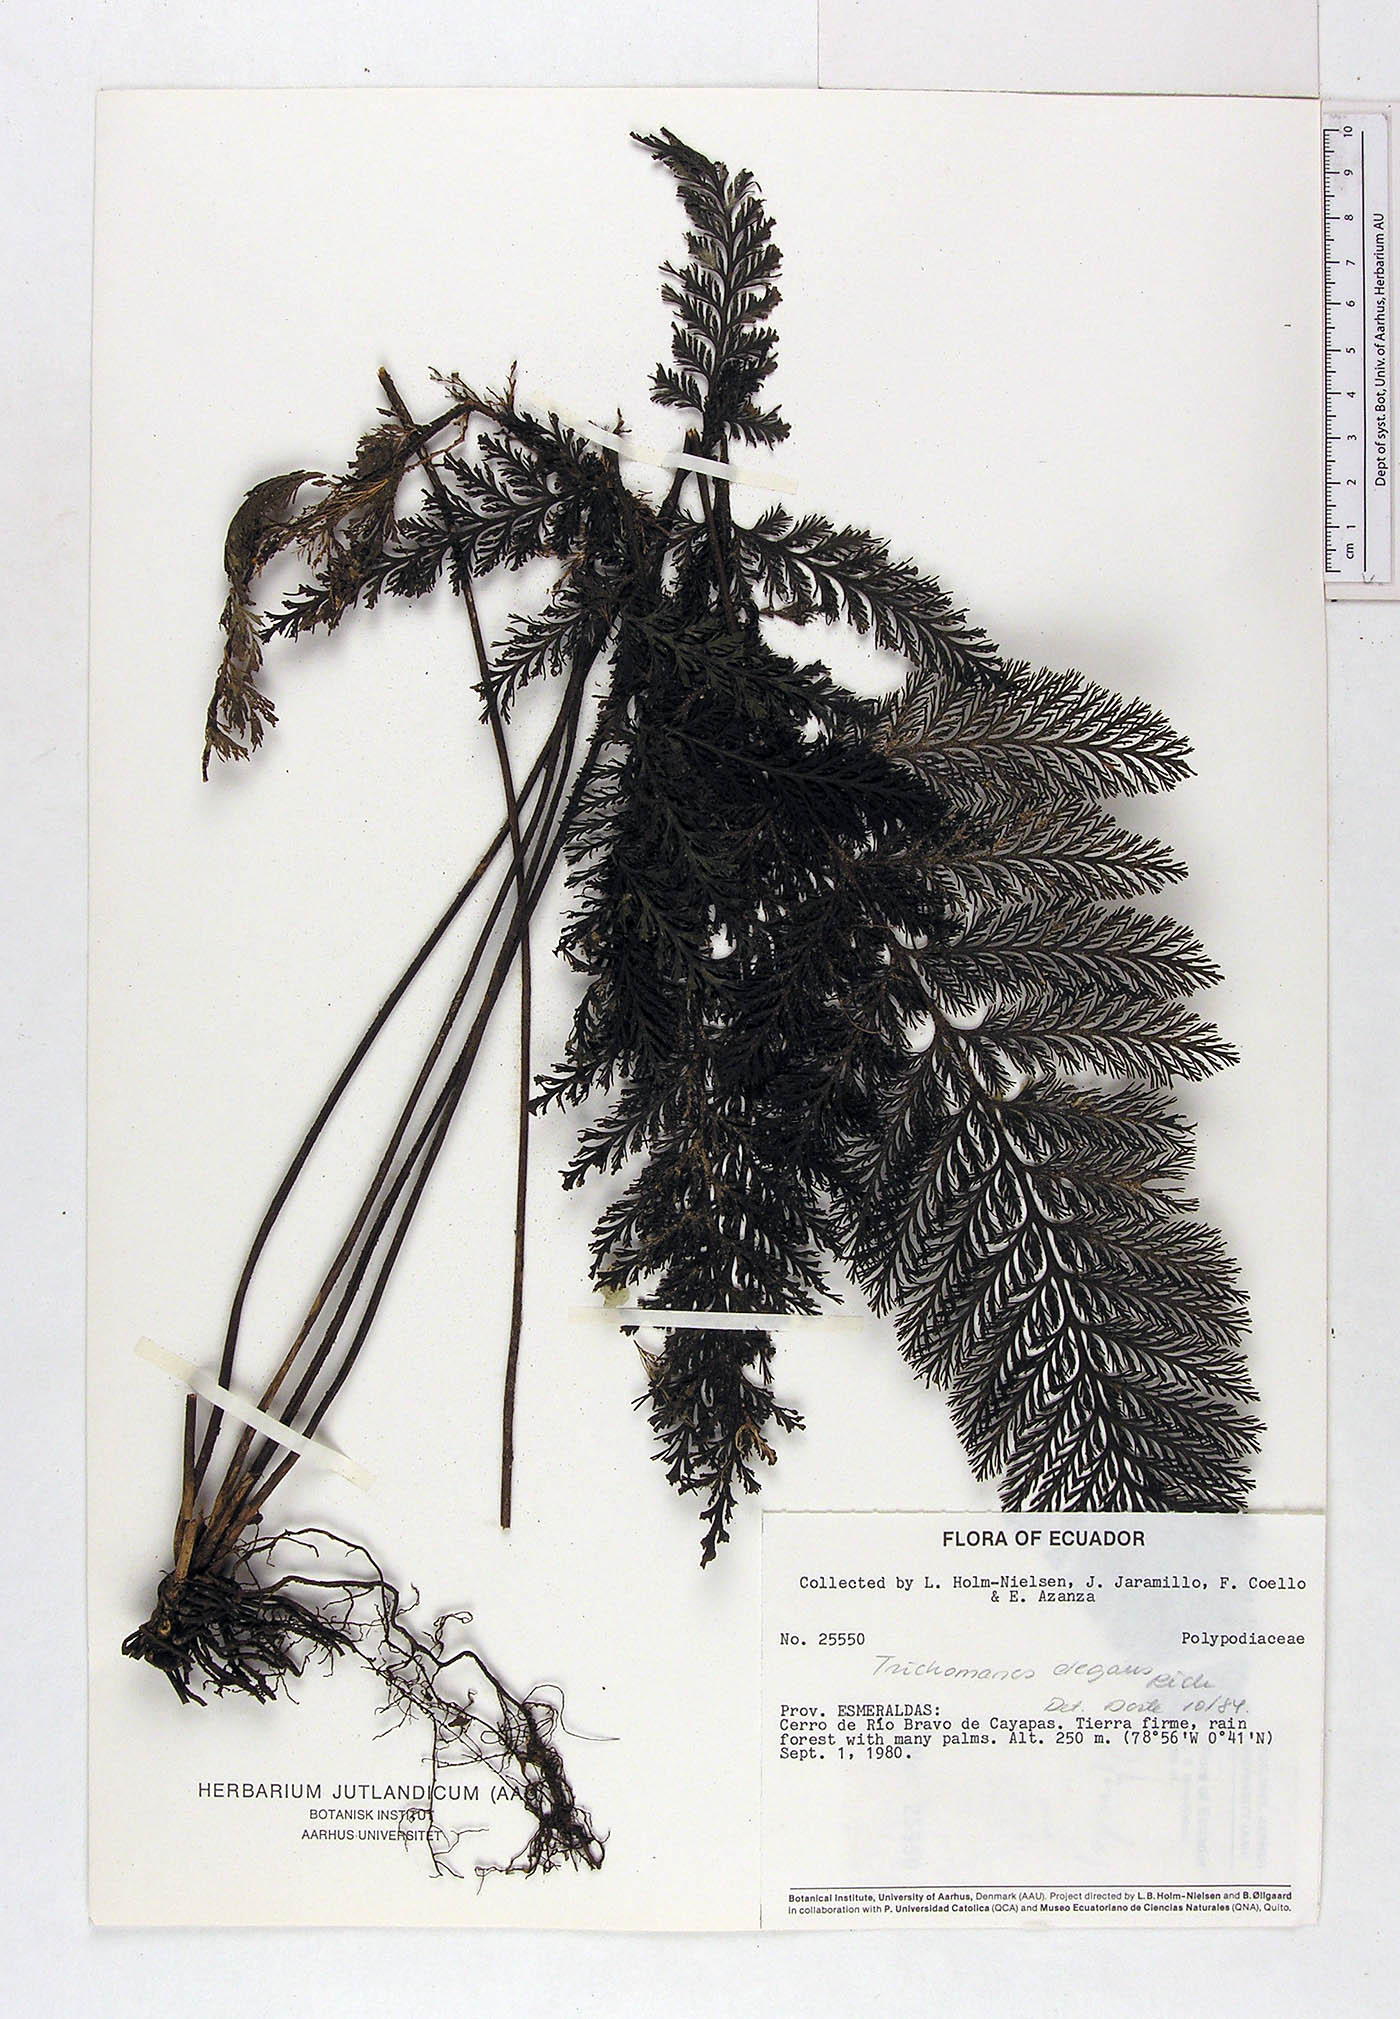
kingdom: Plantae
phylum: Tracheophyta
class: Polypodiopsida
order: Hymenophyllales
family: Hymenophyllaceae
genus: Trichomanes
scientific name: Trichomanes elegans
